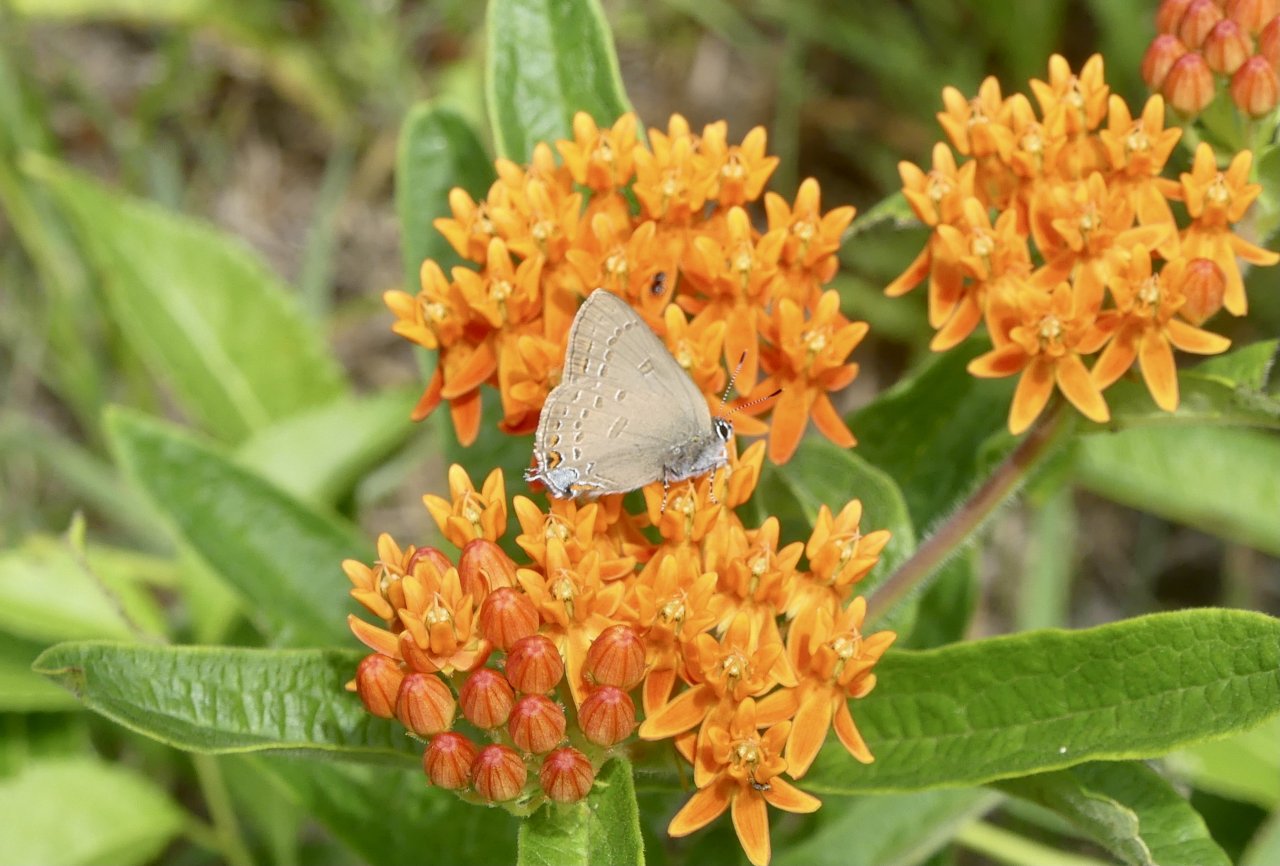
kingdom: Animalia
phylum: Arthropoda
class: Insecta
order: Lepidoptera
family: Lycaenidae
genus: Satyrium
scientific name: Satyrium edwardsii
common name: Edwards' Hairstreak
